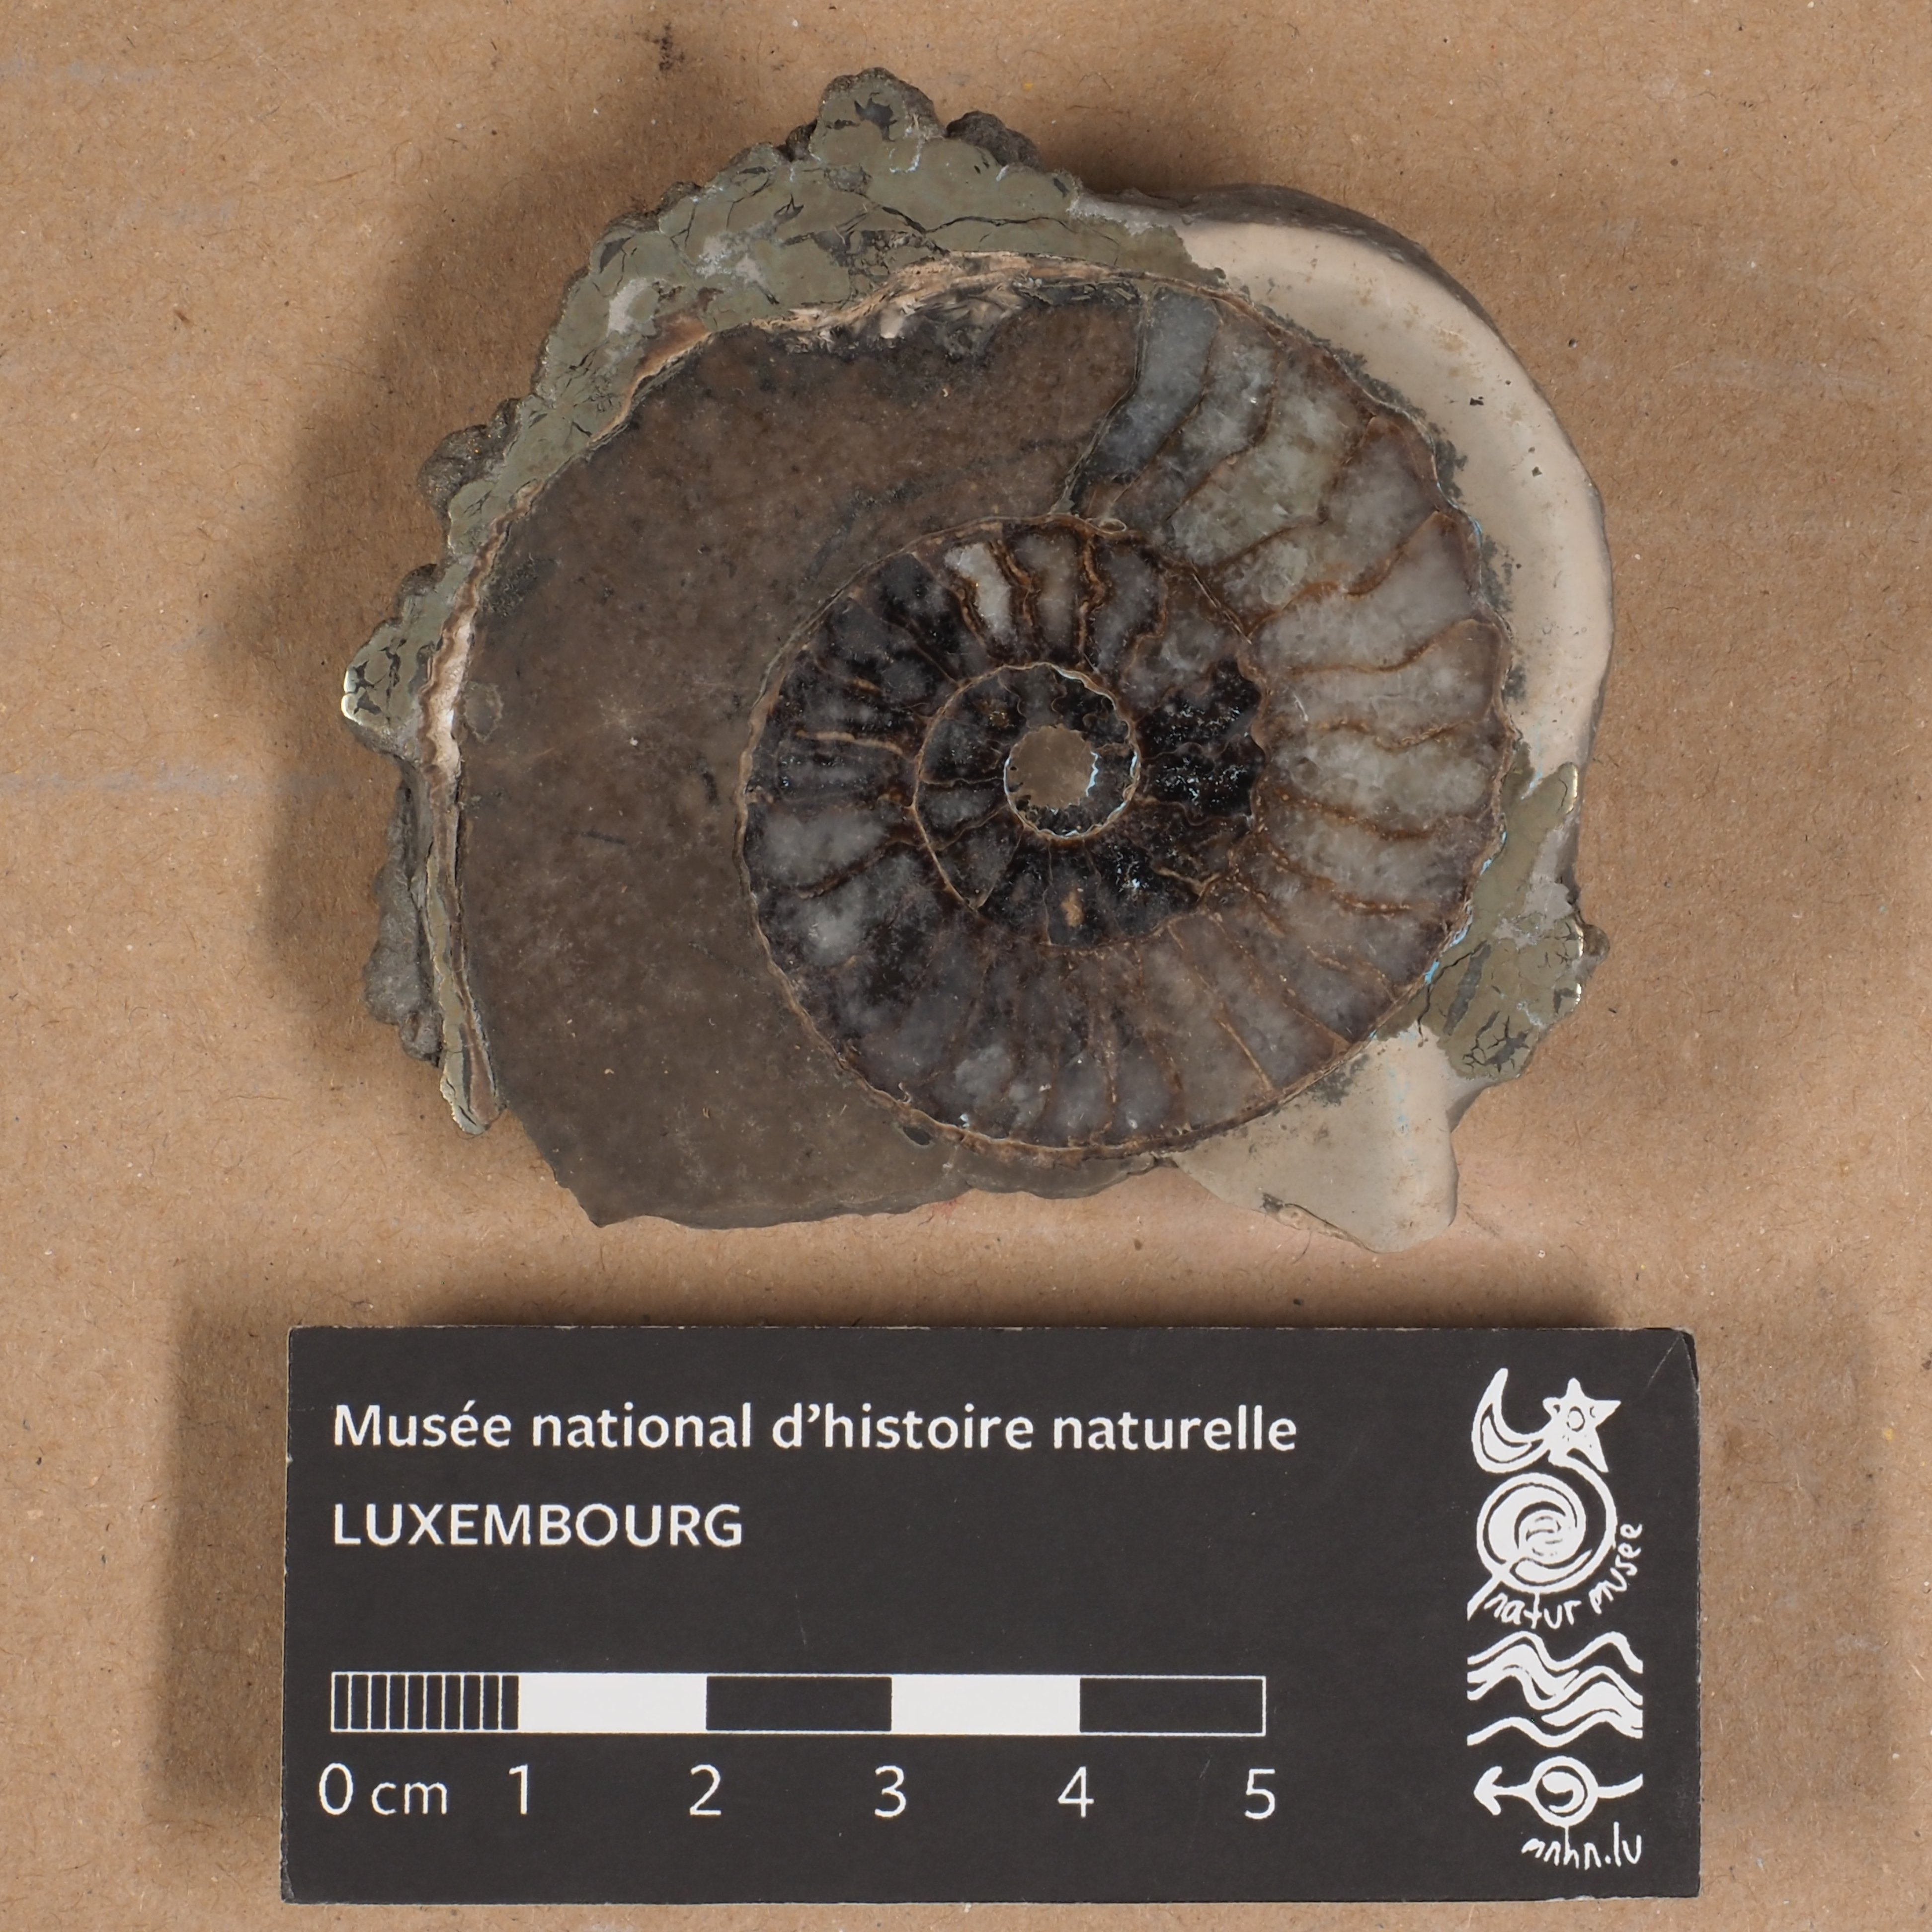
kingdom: Animalia
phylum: Mollusca
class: Cephalopoda
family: Amaltheidae
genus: Pleuroceras
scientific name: Pleuroceras spinatum
